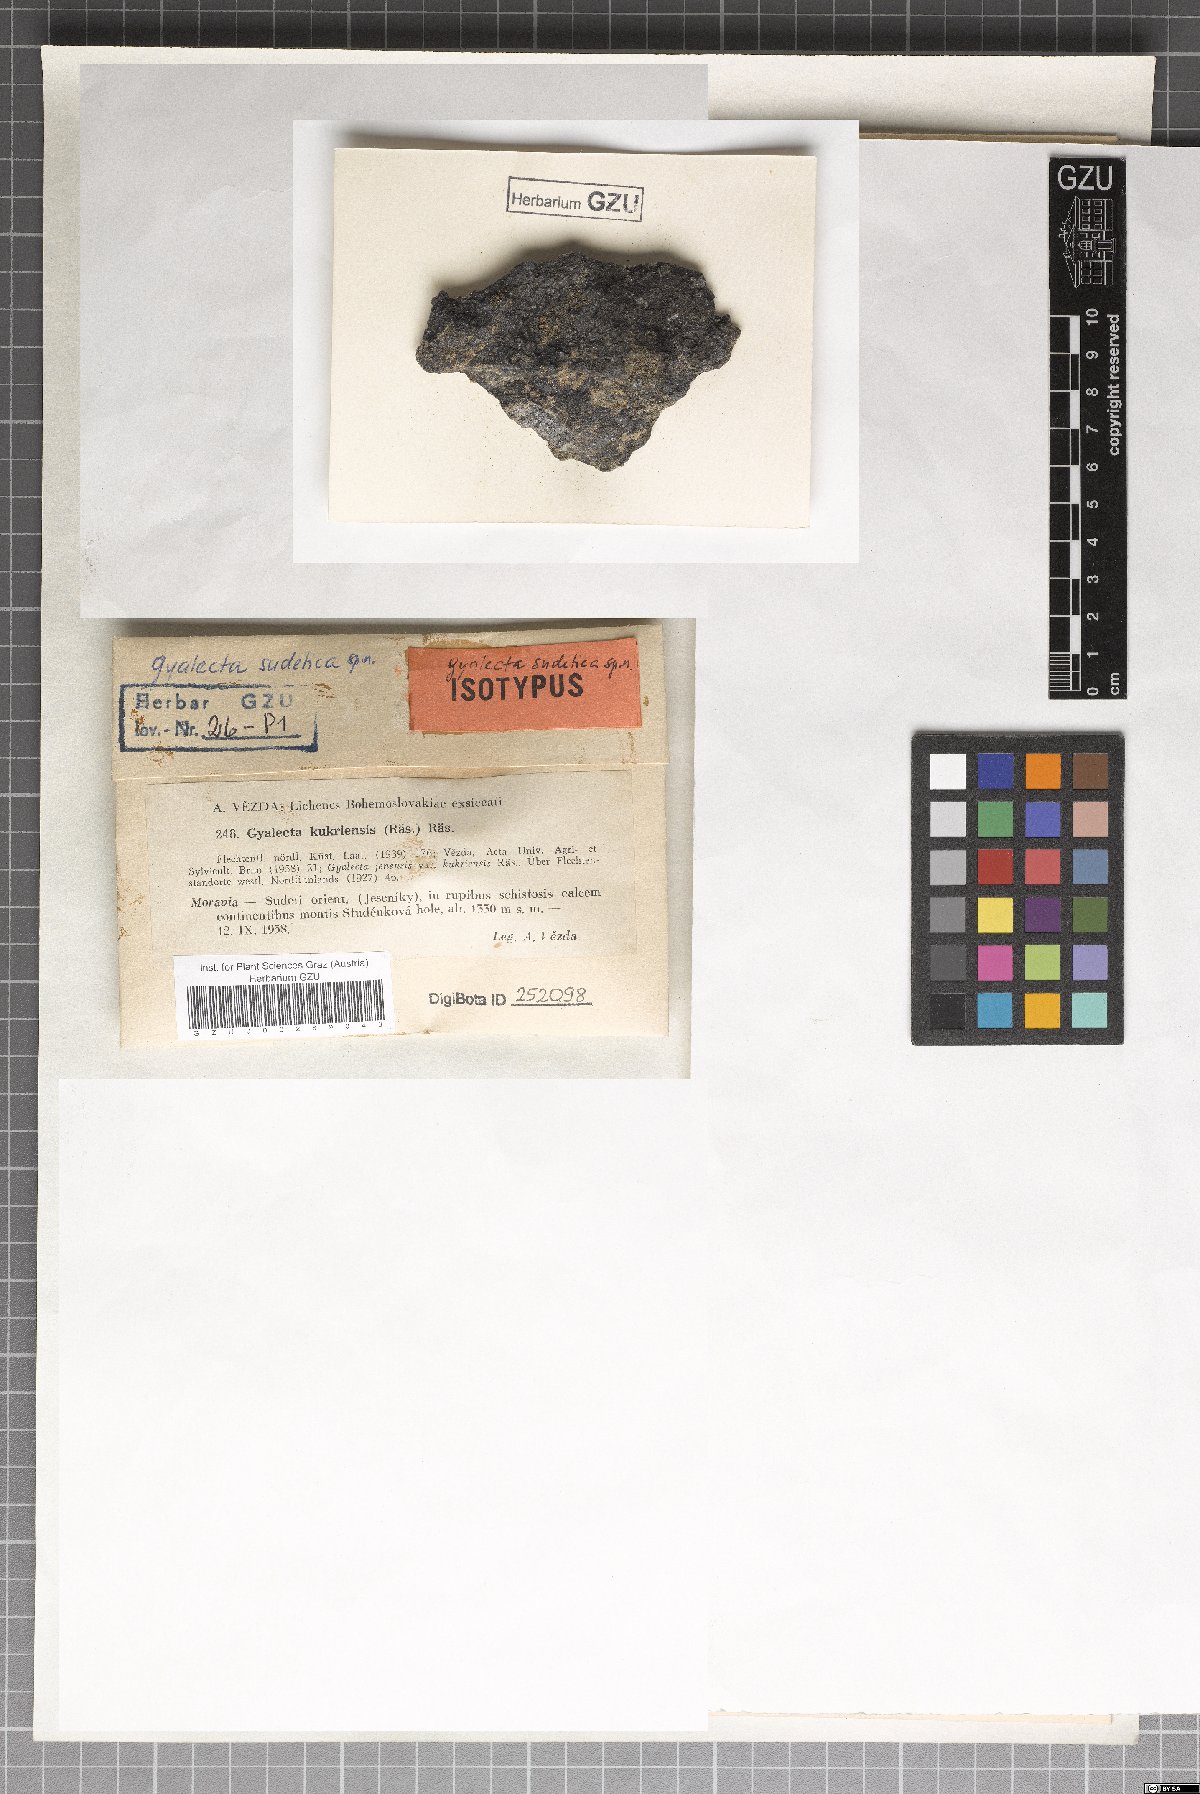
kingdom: Fungi
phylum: Ascomycota
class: Lecanoromycetes
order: Gyalectales
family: Gyalectaceae
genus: Gyalecta
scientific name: Gyalecta erythrozona
